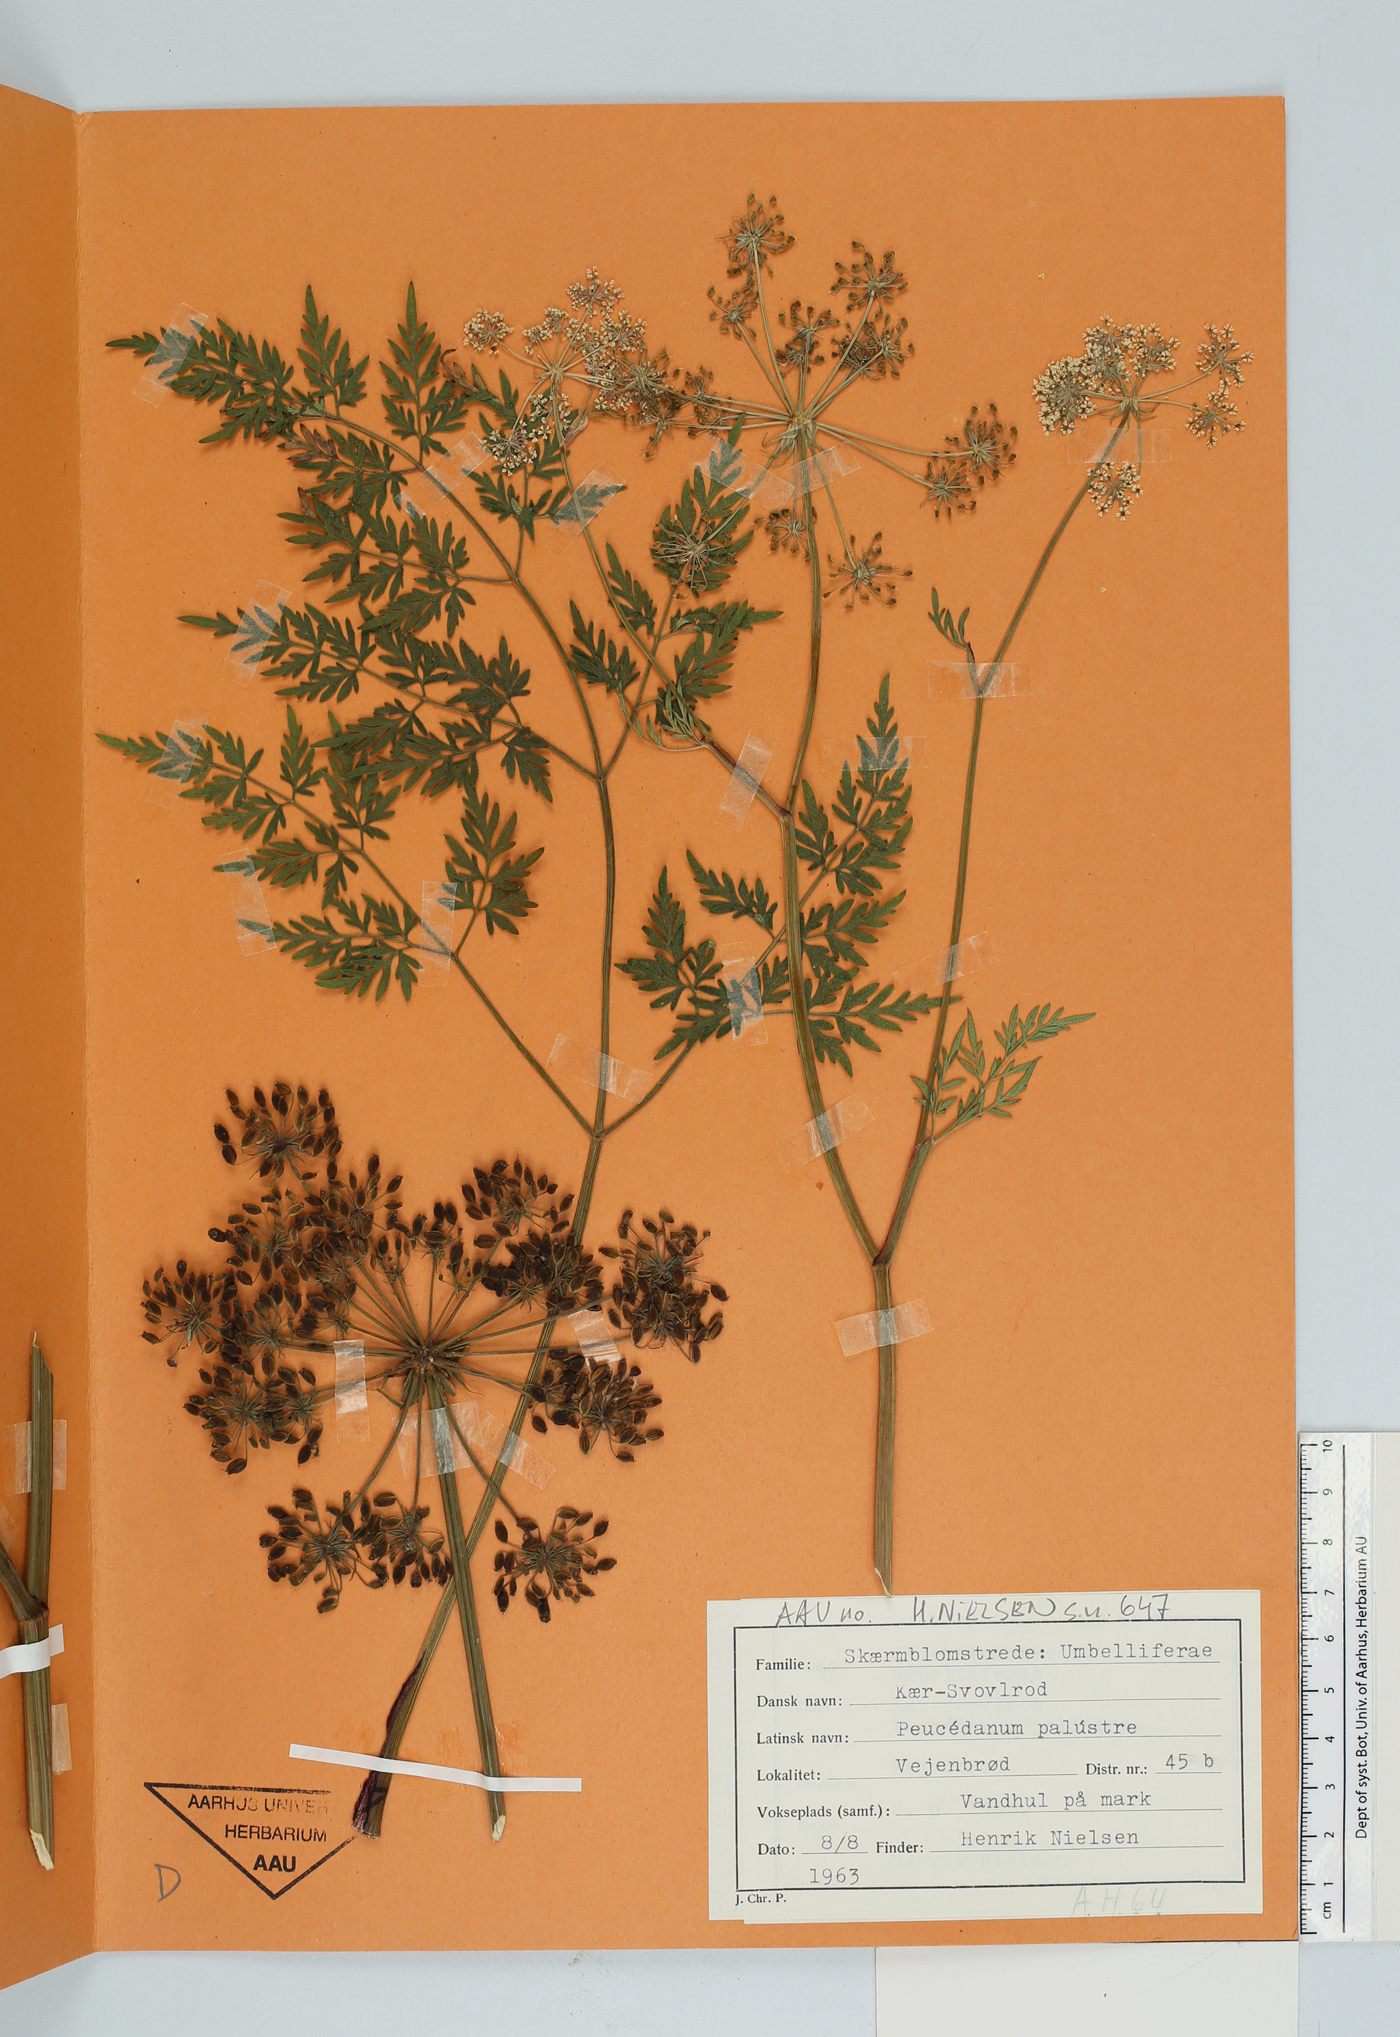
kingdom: Plantae
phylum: Tracheophyta
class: Magnoliopsida
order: Apiales
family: Apiaceae
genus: Thysselinum
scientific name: Thysselinum palustre
